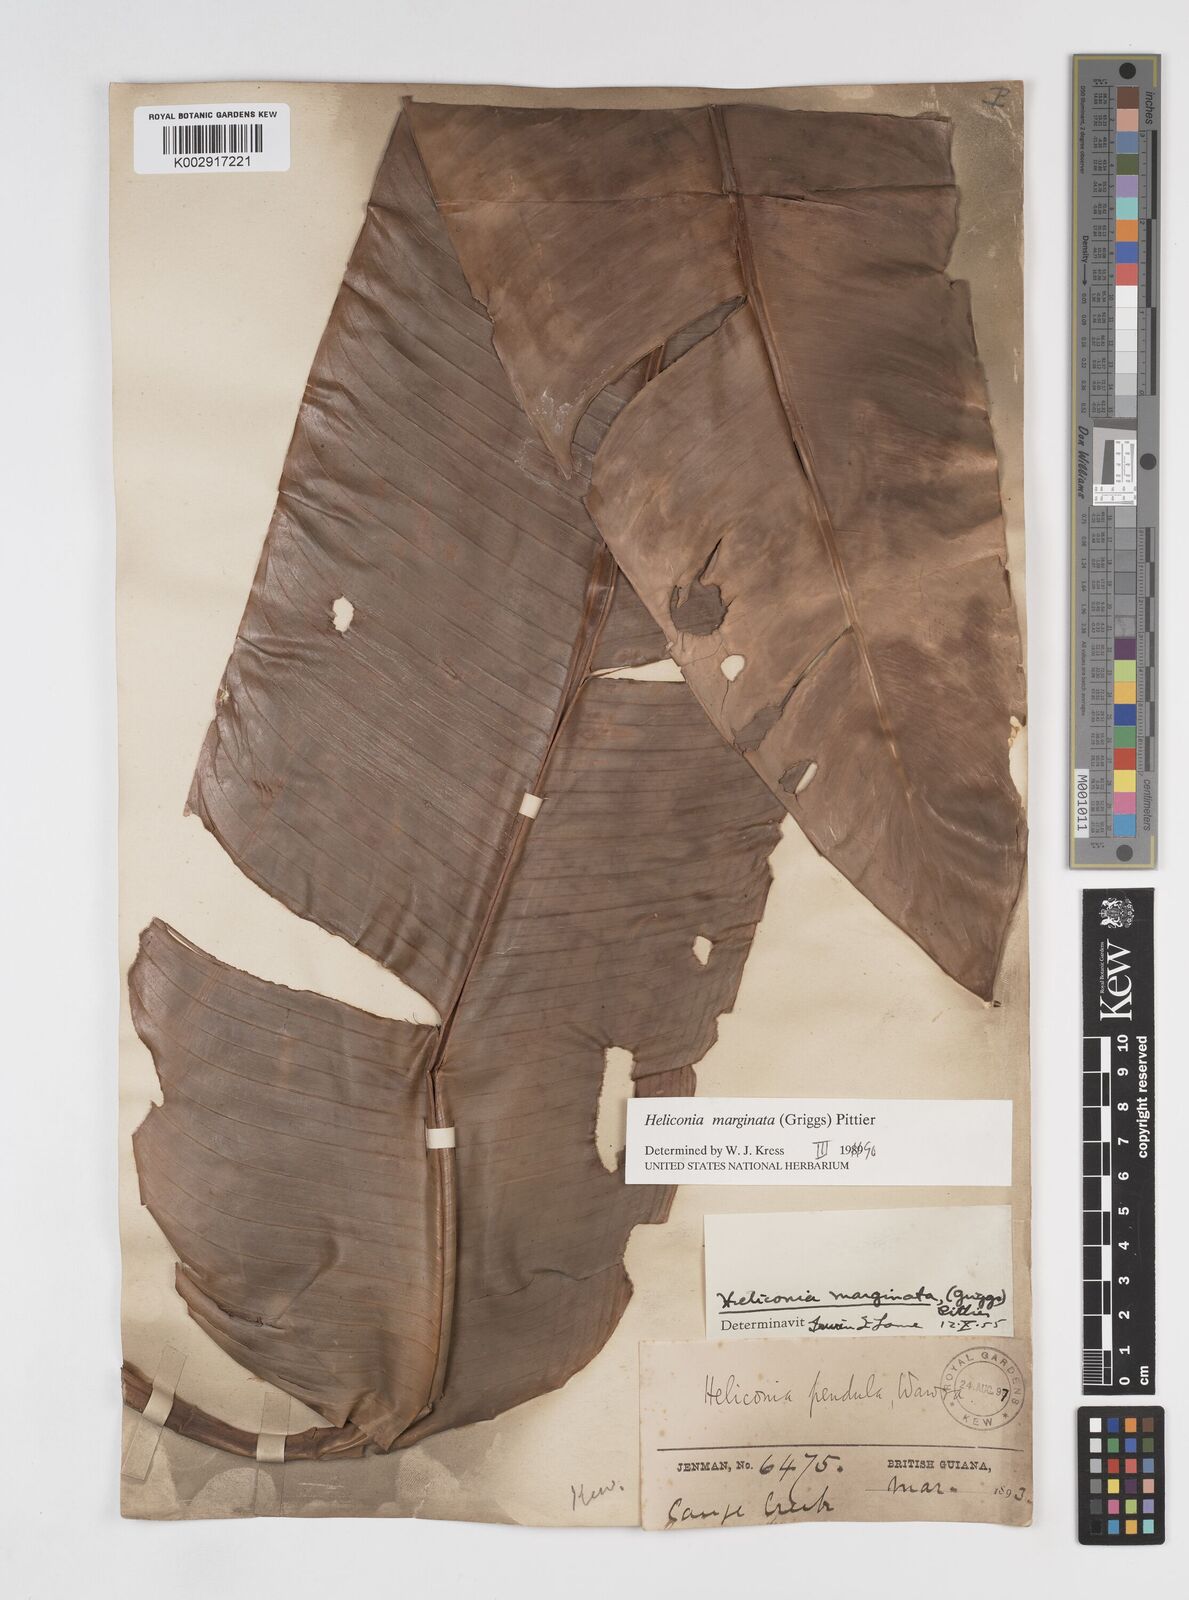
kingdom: Plantae
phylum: Tracheophyta
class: Liliopsida
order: Zingiberales
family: Heliconiaceae
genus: Heliconia
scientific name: Heliconia marginata
